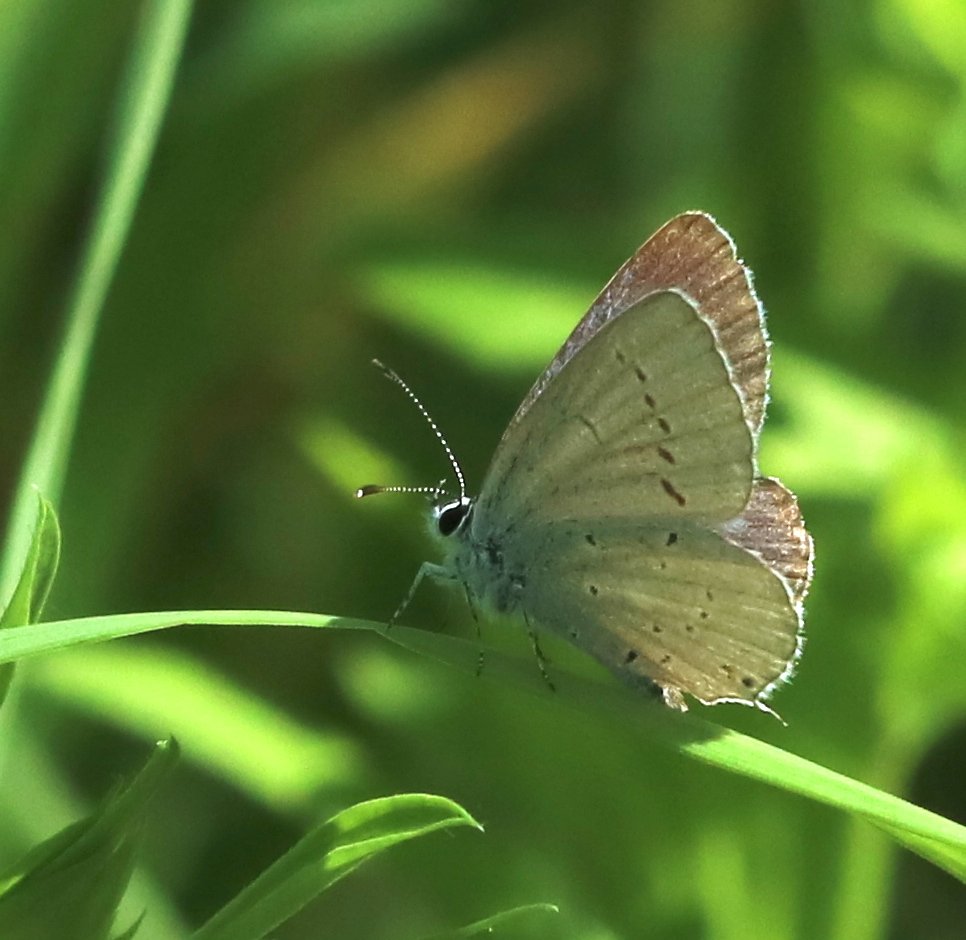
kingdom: Animalia
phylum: Arthropoda
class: Insecta
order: Lepidoptera
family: Lycaenidae
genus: Elkalyce
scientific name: Elkalyce amyntula
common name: Western Tailed-Blue
